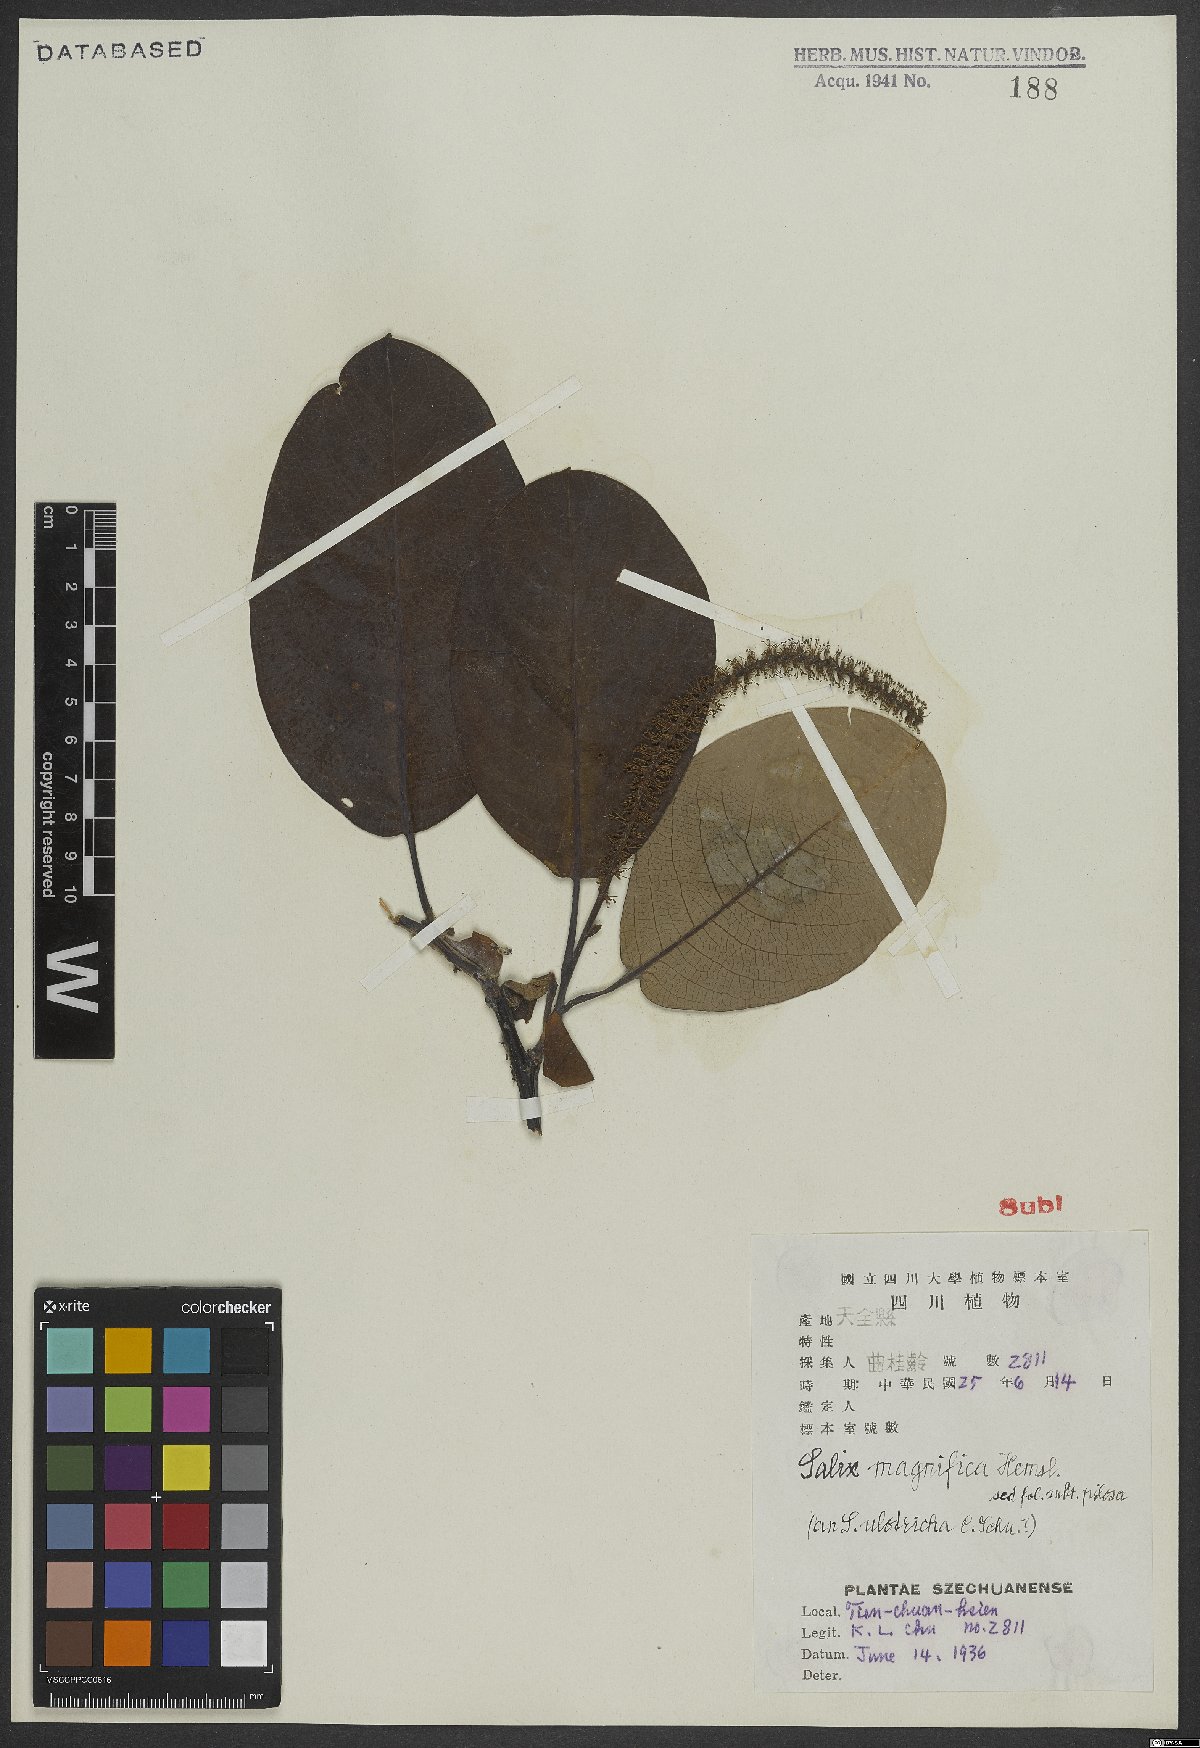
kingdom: Plantae
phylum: Tracheophyta
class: Magnoliopsida
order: Malpighiales
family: Salicaceae
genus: Salix
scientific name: Salix magnifica
